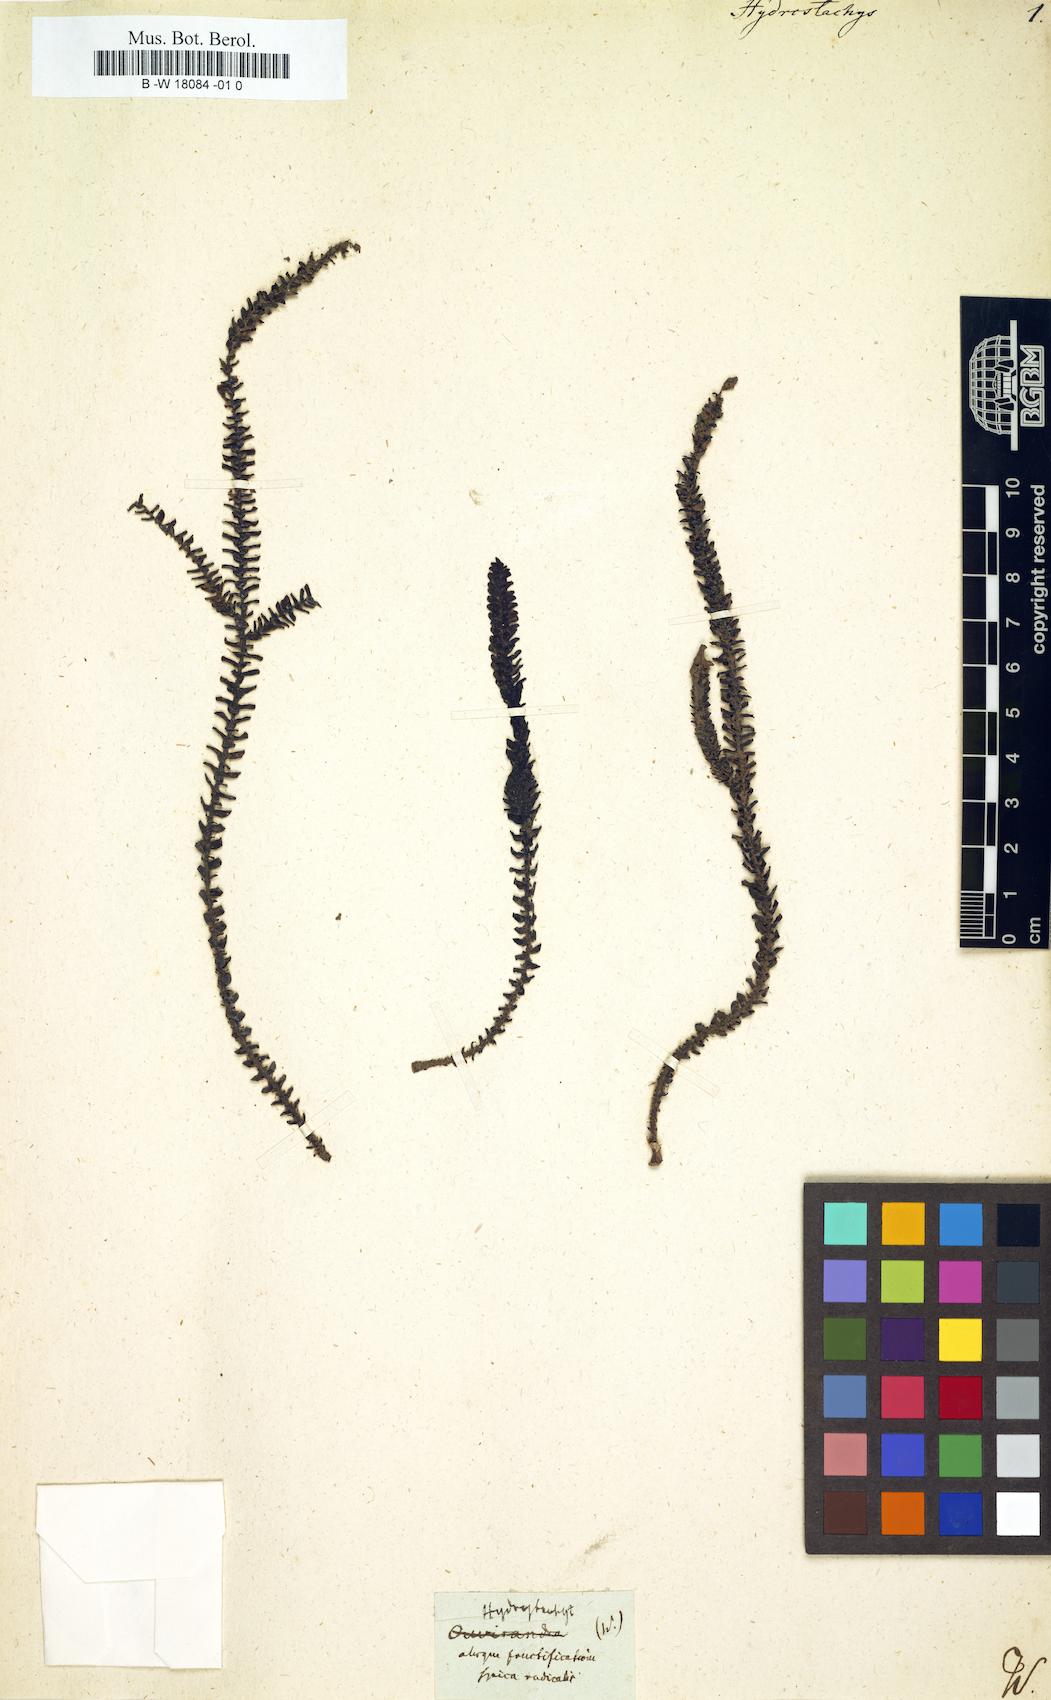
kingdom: Plantae
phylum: Tracheophyta
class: Magnoliopsida
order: Cornales
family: Hydrostachyaceae
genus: Hydrostachys
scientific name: Hydrostachys
